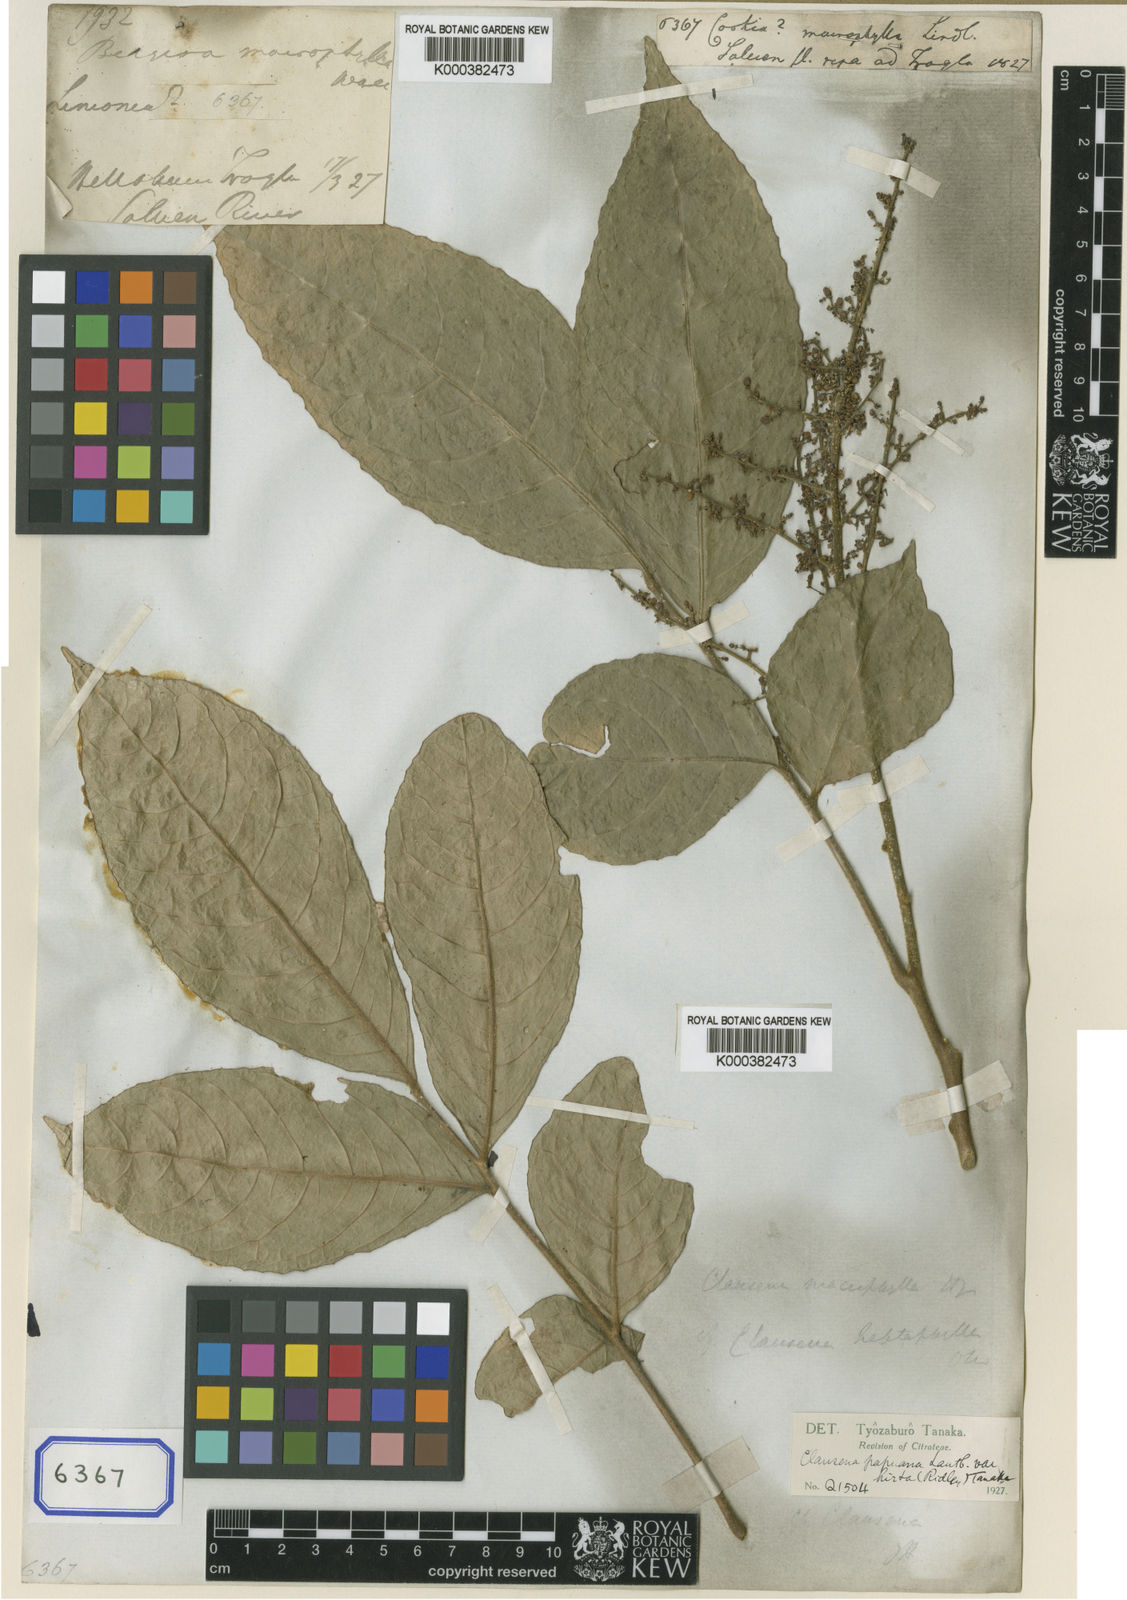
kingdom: Plantae
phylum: Tracheophyta
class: Magnoliopsida
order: Sapindales
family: Rutaceae
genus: Clausena
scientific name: Clausena heptaphylla
